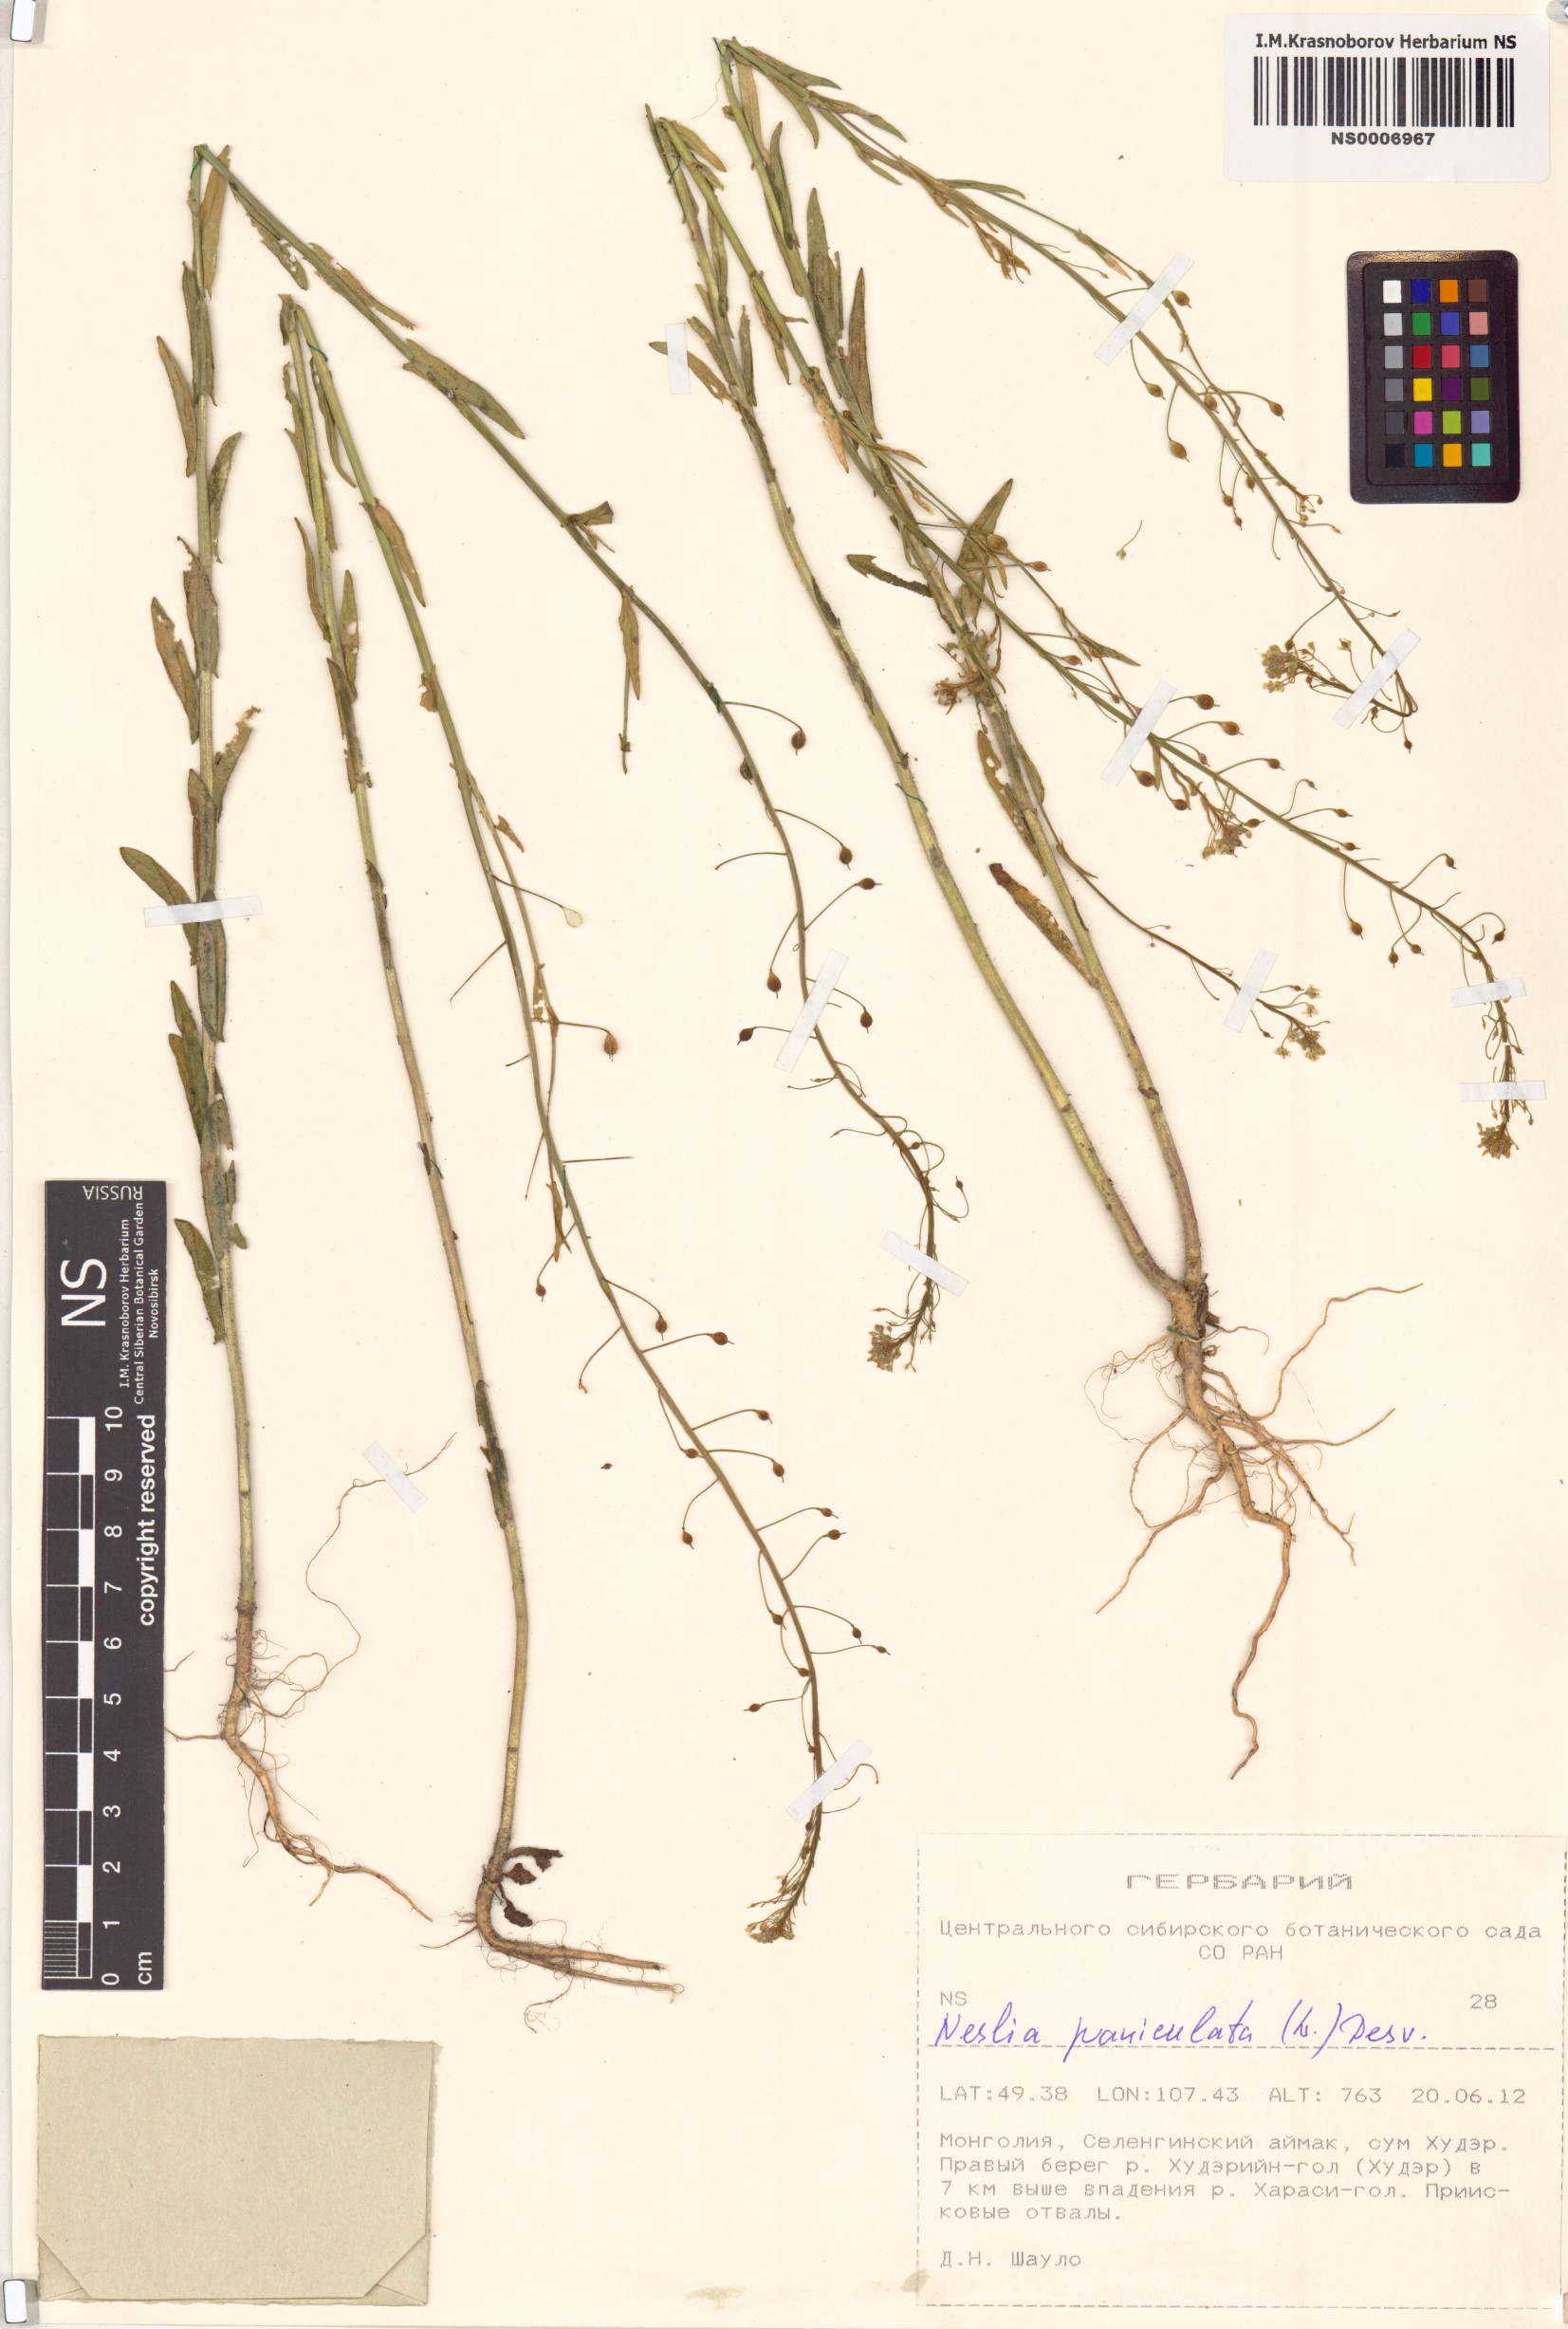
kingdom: Plantae
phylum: Tracheophyta
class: Magnoliopsida
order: Brassicales
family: Brassicaceae
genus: Neslia
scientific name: Neslia paniculata
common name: Ball mustard
